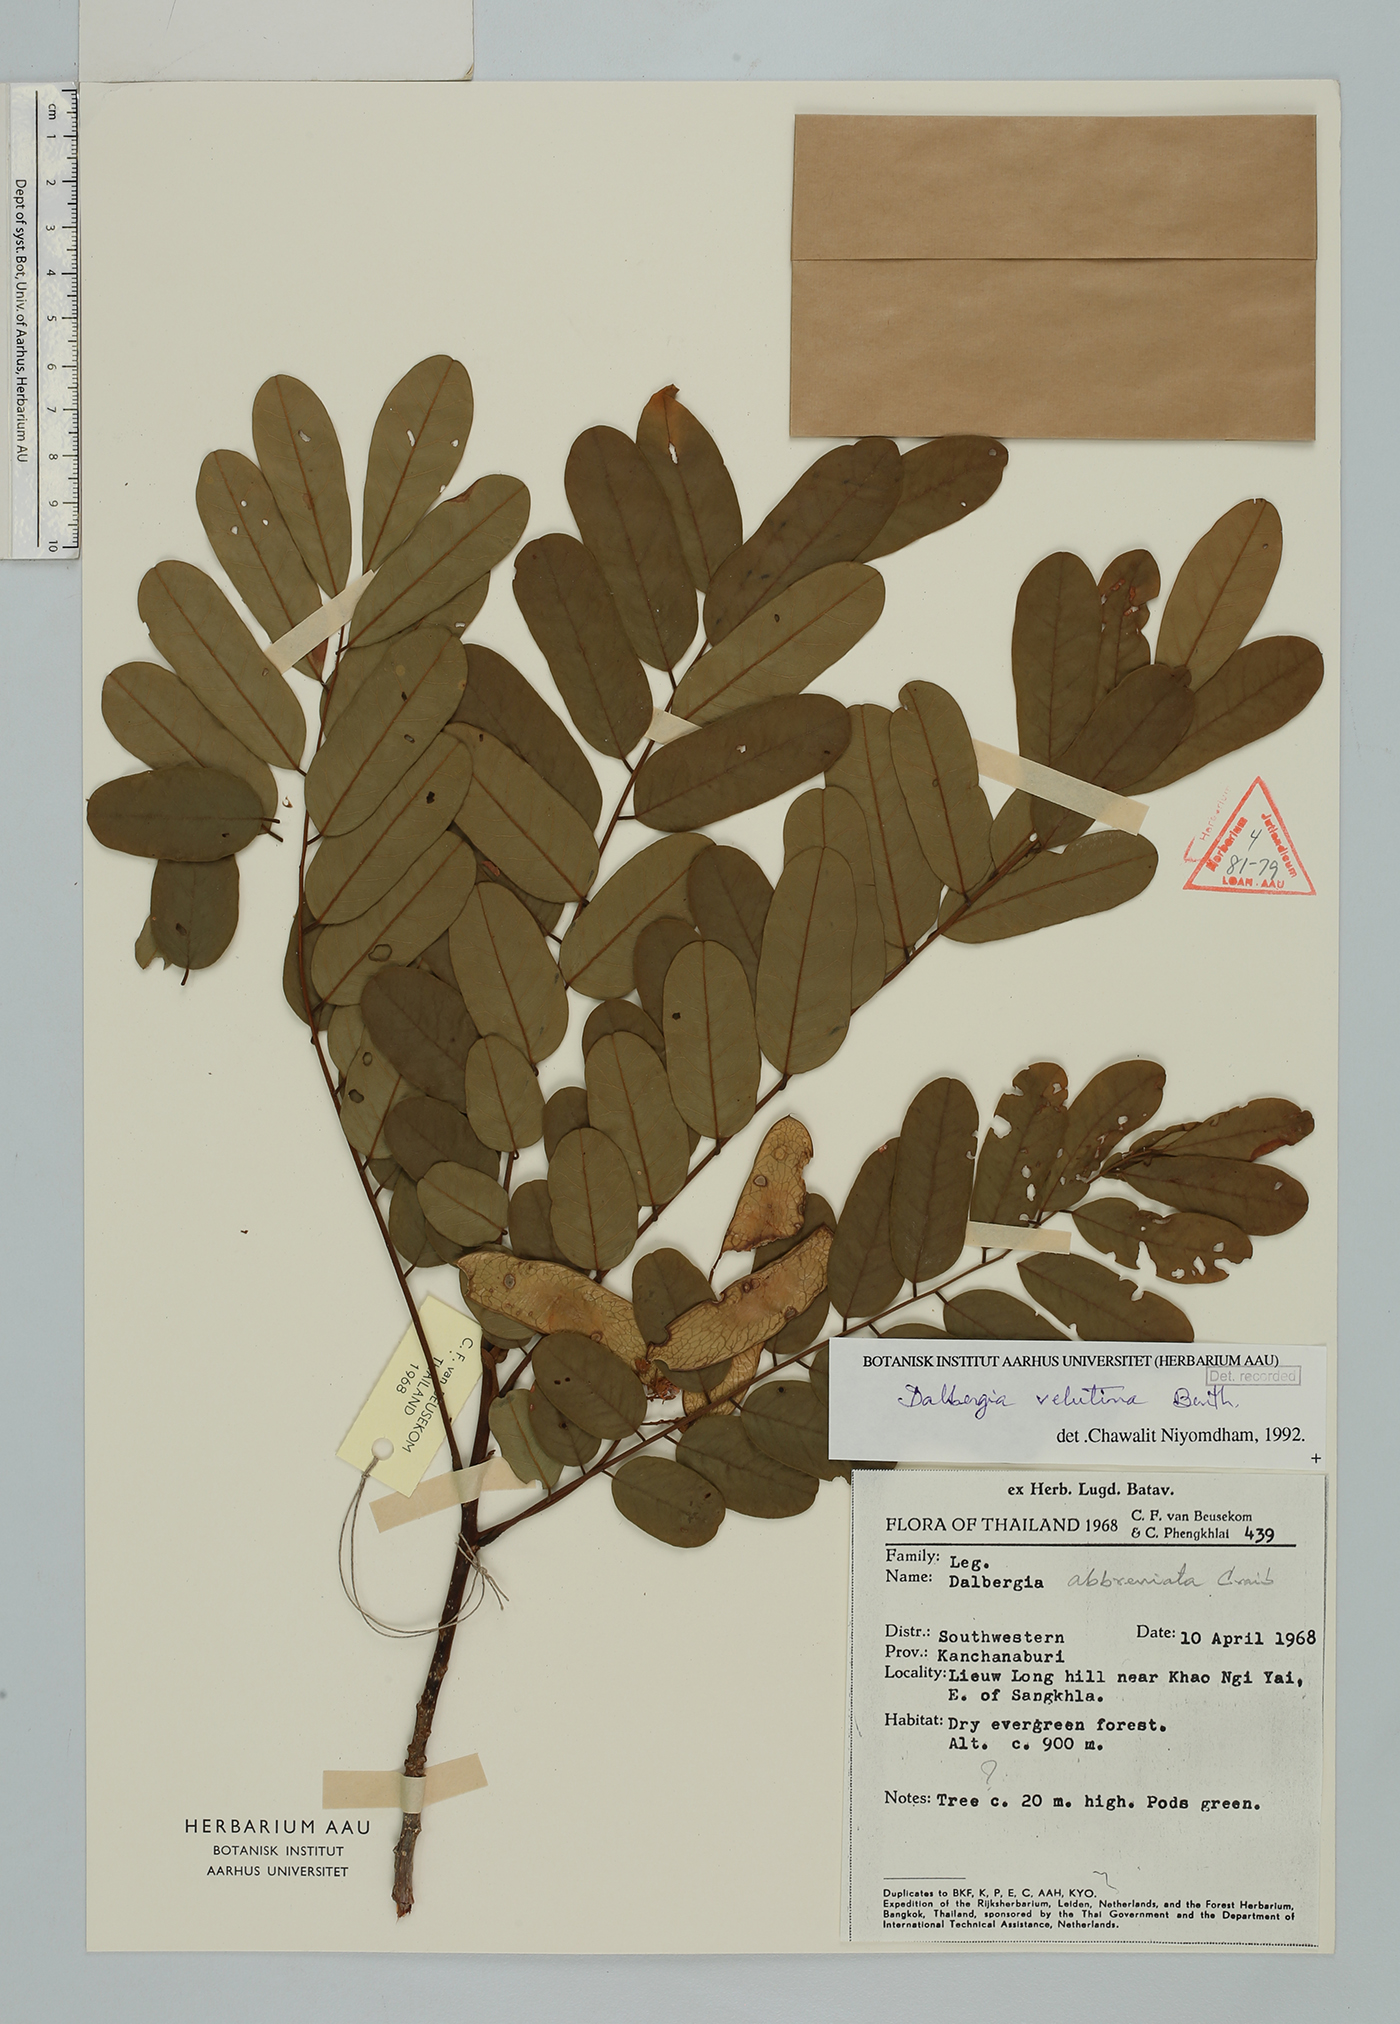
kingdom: Plantae
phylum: Tracheophyta
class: Magnoliopsida
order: Fabales
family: Fabaceae
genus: Dalbergia
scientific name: Dalbergia velutina
